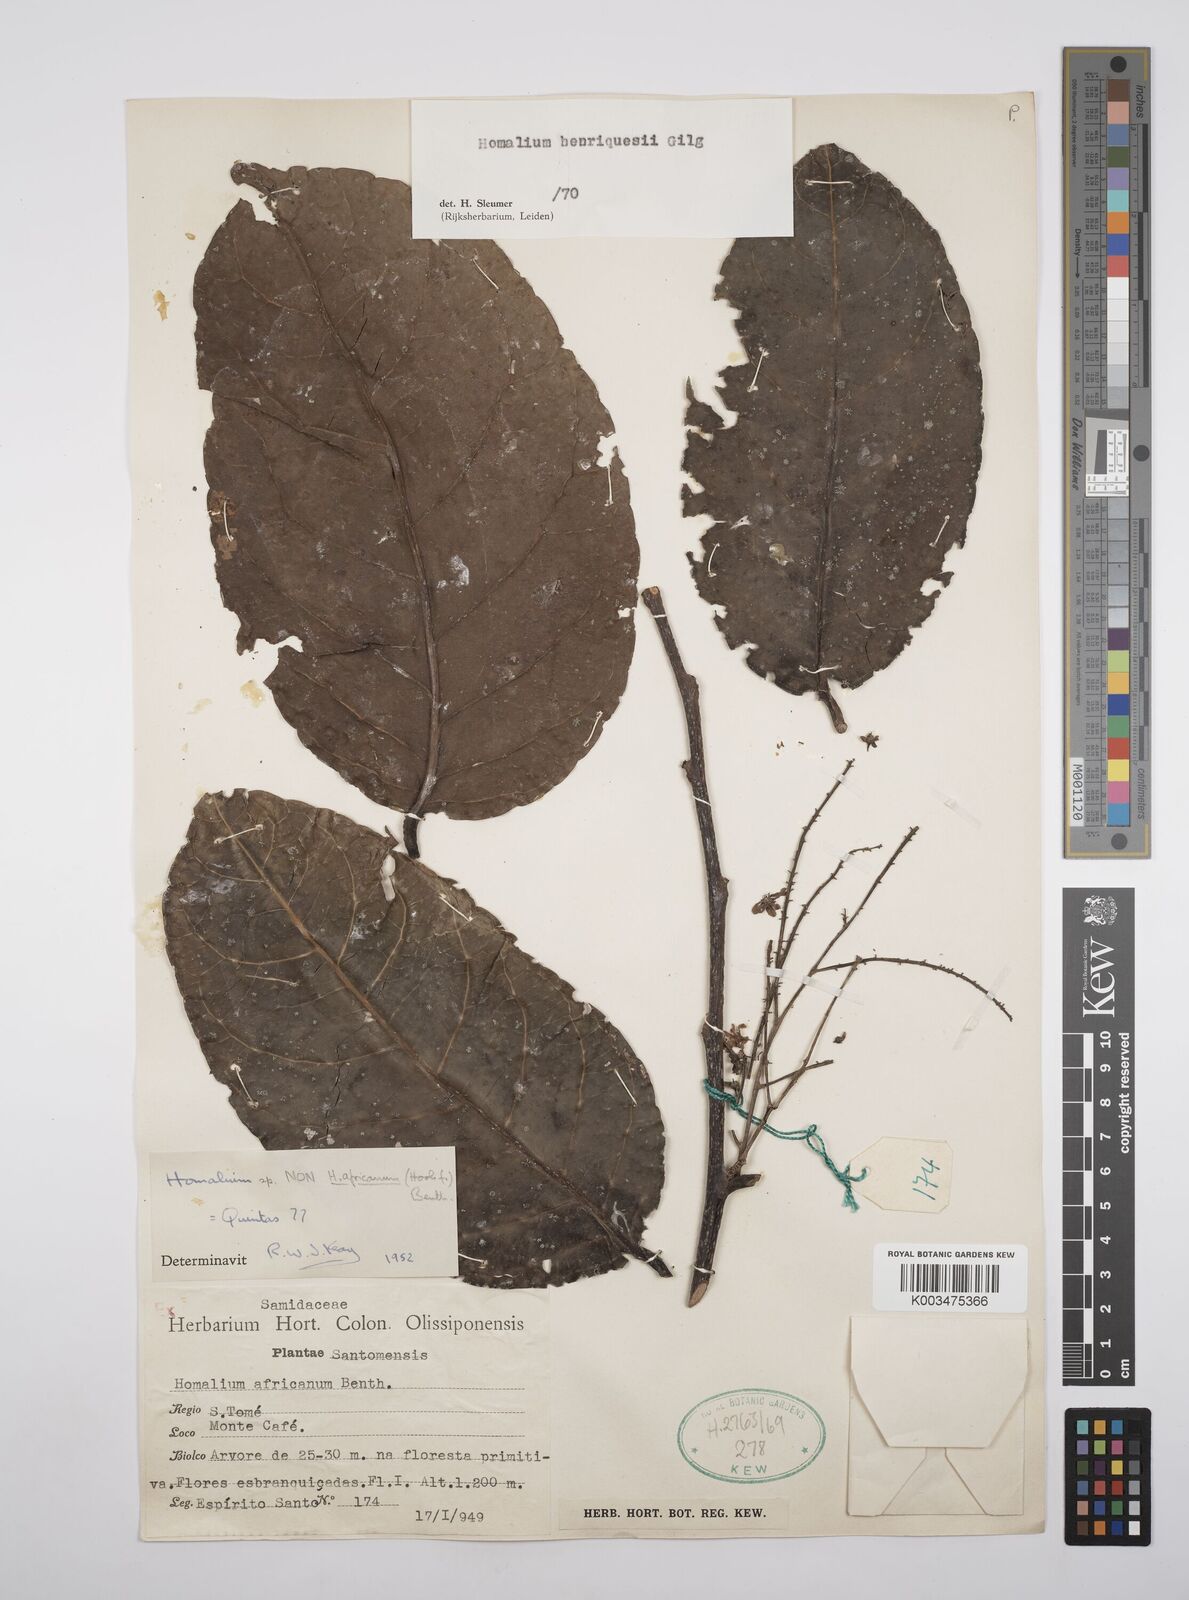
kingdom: Plantae
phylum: Tracheophyta
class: Magnoliopsida
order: Malpighiales
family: Salicaceae
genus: Homalium
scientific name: Homalium henriquesii
